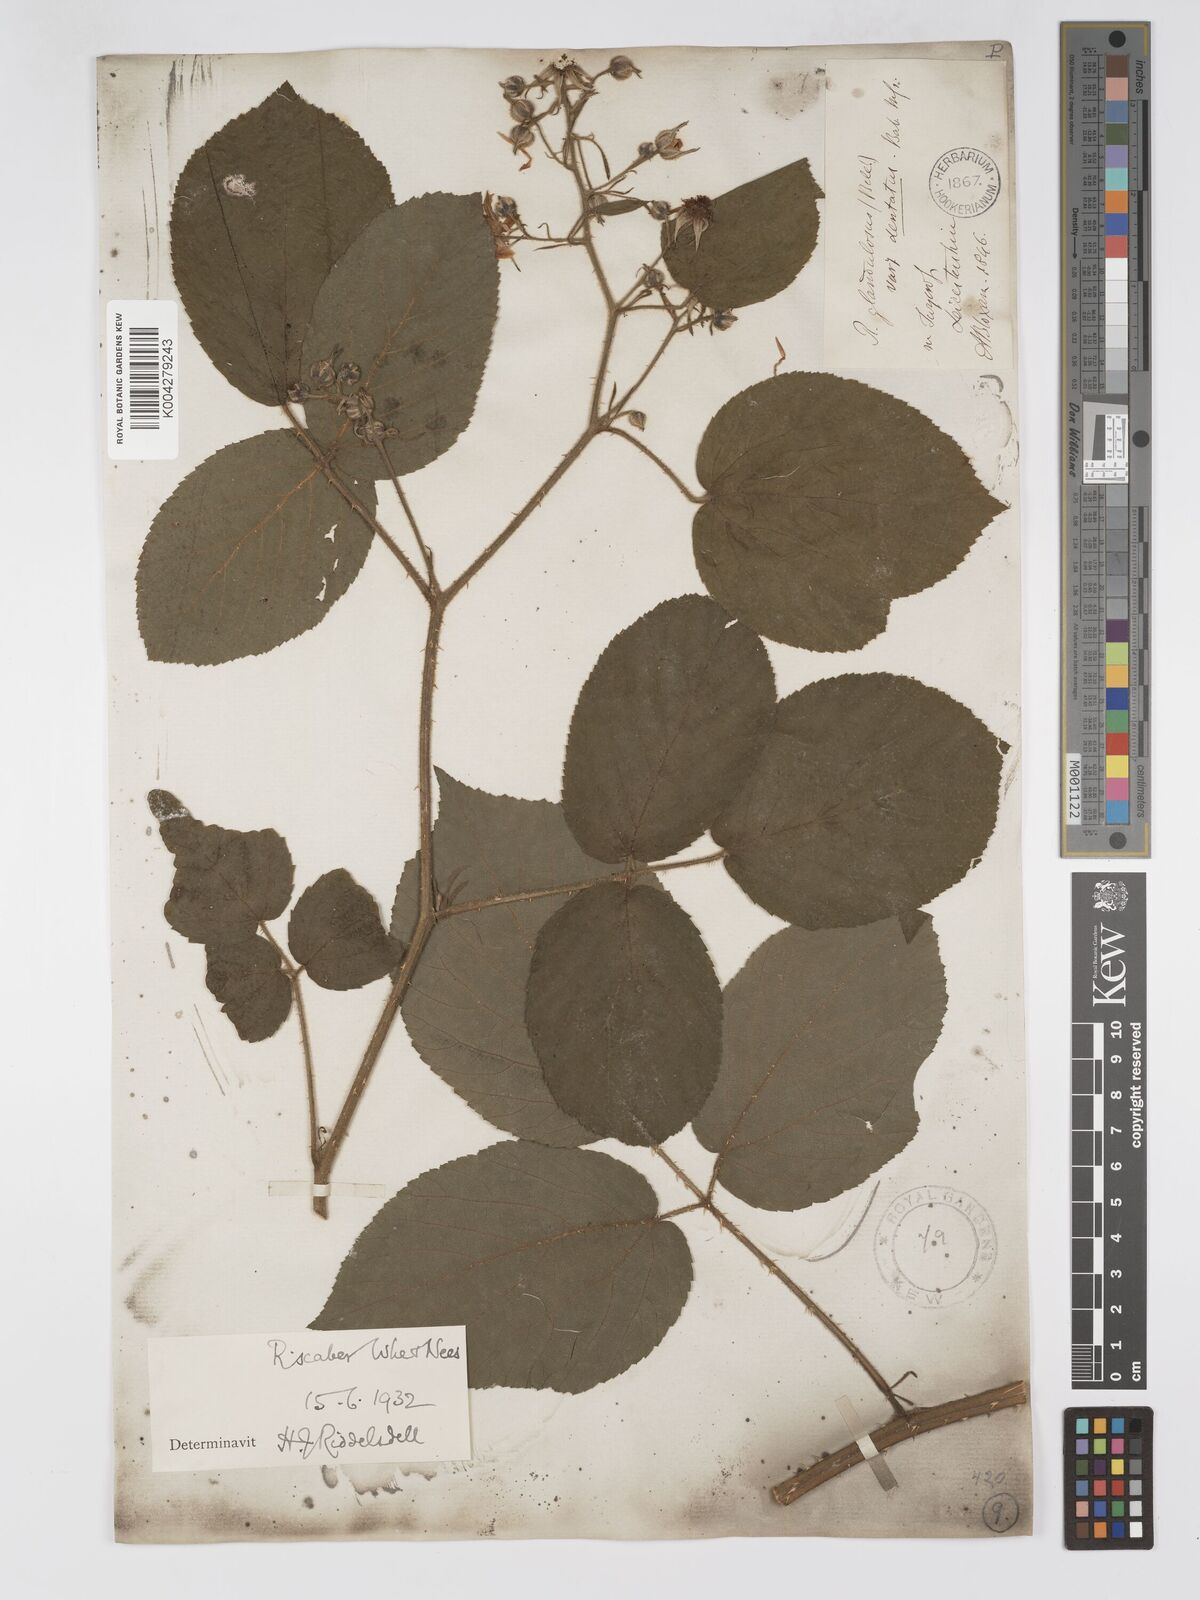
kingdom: Plantae
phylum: Tracheophyta
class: Magnoliopsida
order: Rosales
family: Rosaceae
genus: Rubus
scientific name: Rubus scaber
